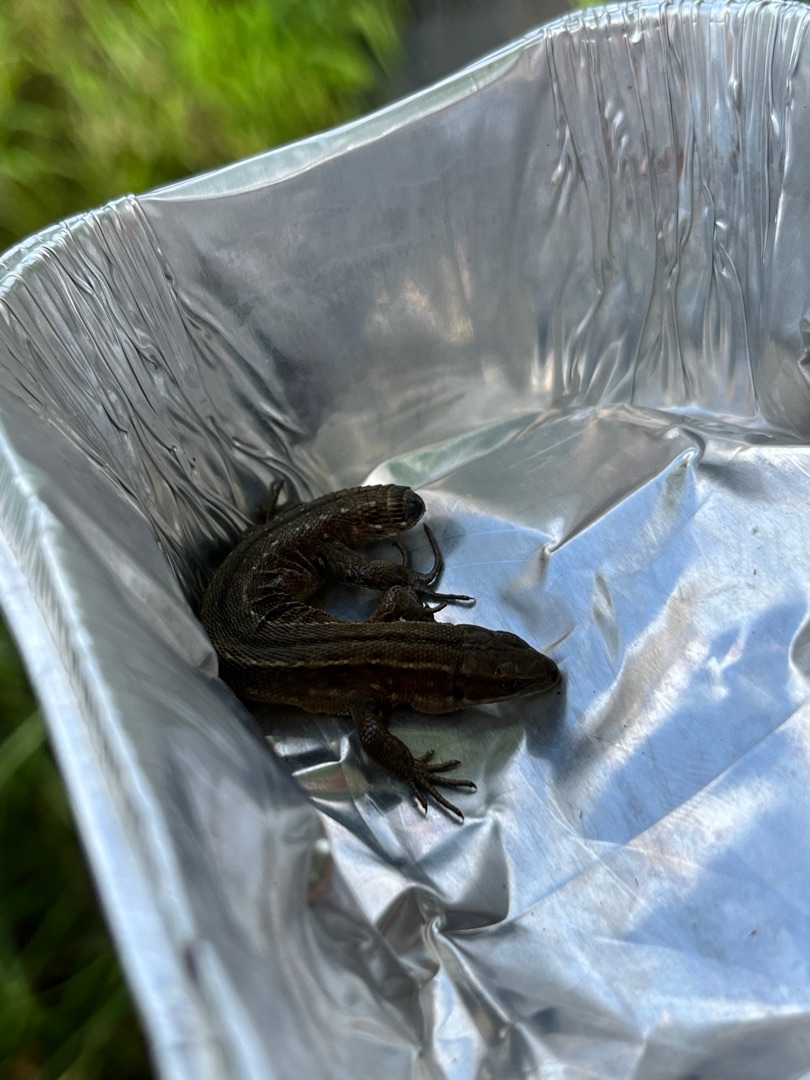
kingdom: Animalia
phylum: Chordata
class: Squamata
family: Lacertidae
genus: Zootoca
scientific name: Zootoca vivipara
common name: Skovfirben
